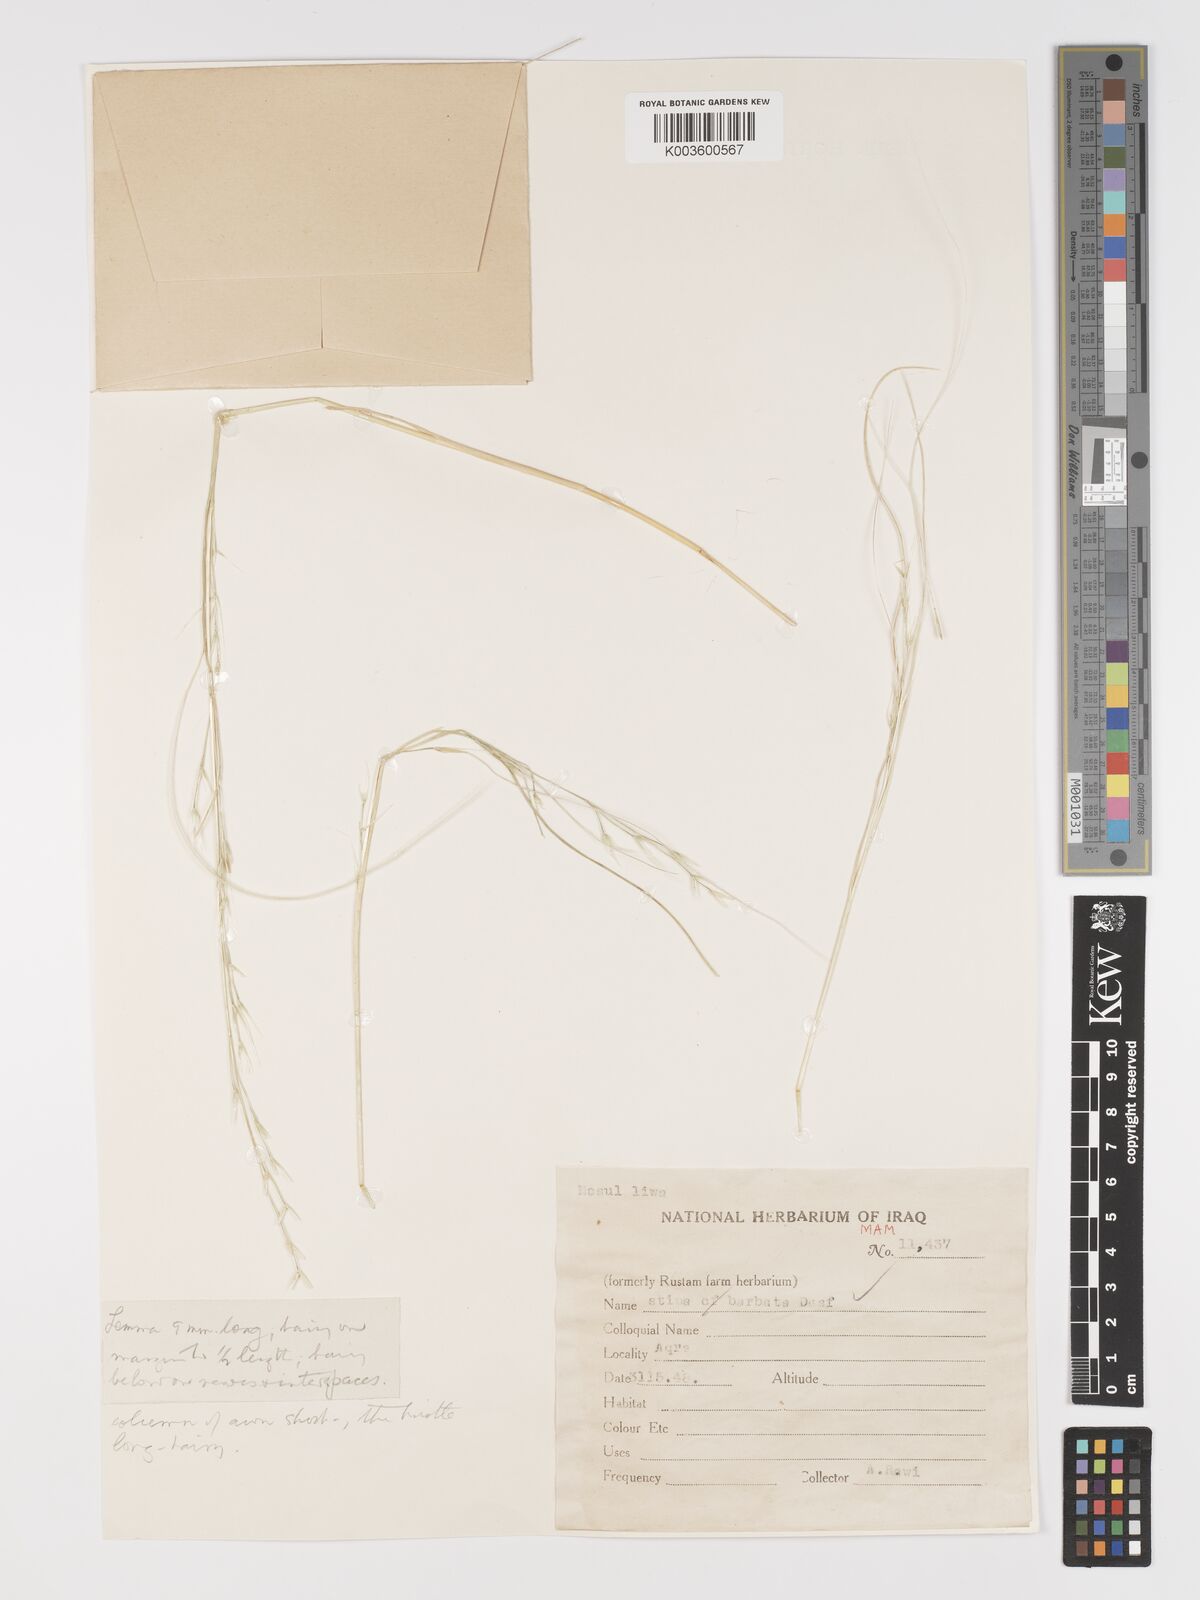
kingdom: Plantae
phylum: Tracheophyta
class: Liliopsida
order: Poales
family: Poaceae
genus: Stipa
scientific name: Stipa barbata
